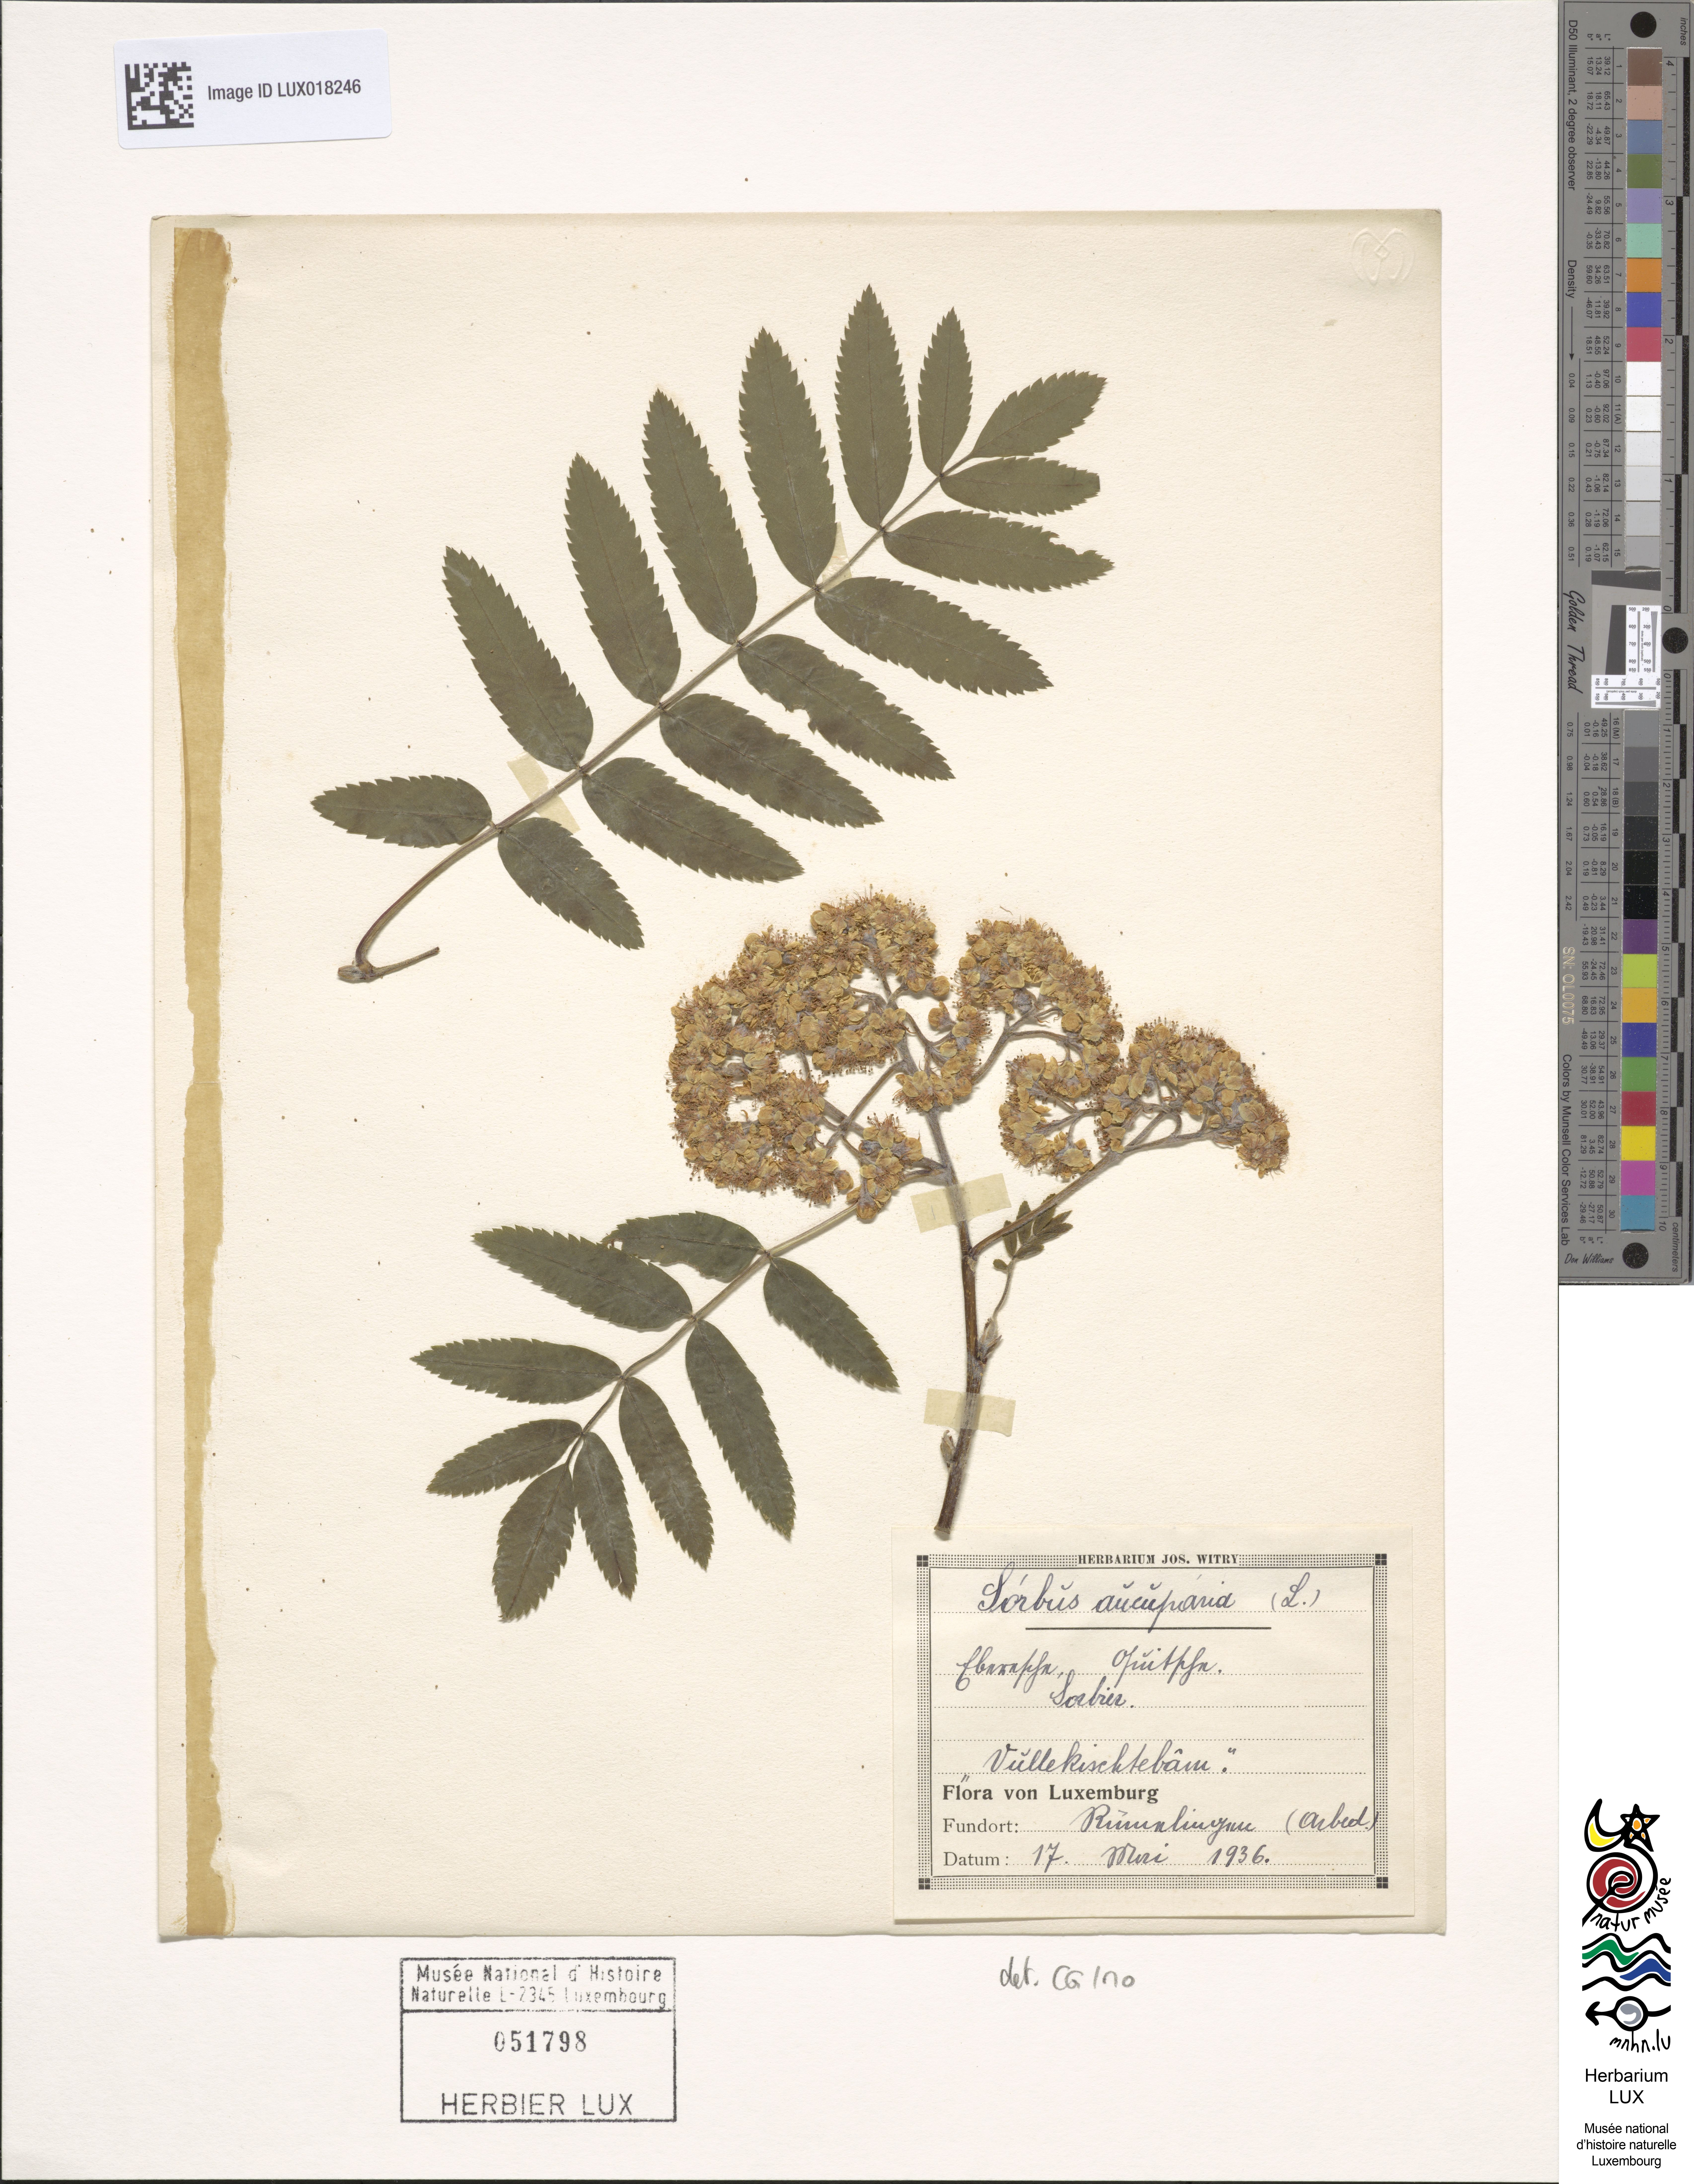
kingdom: Plantae
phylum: Tracheophyta
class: Magnoliopsida
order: Rosales
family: Rosaceae
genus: Sorbus
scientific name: Sorbus aucuparia
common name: Rowan
